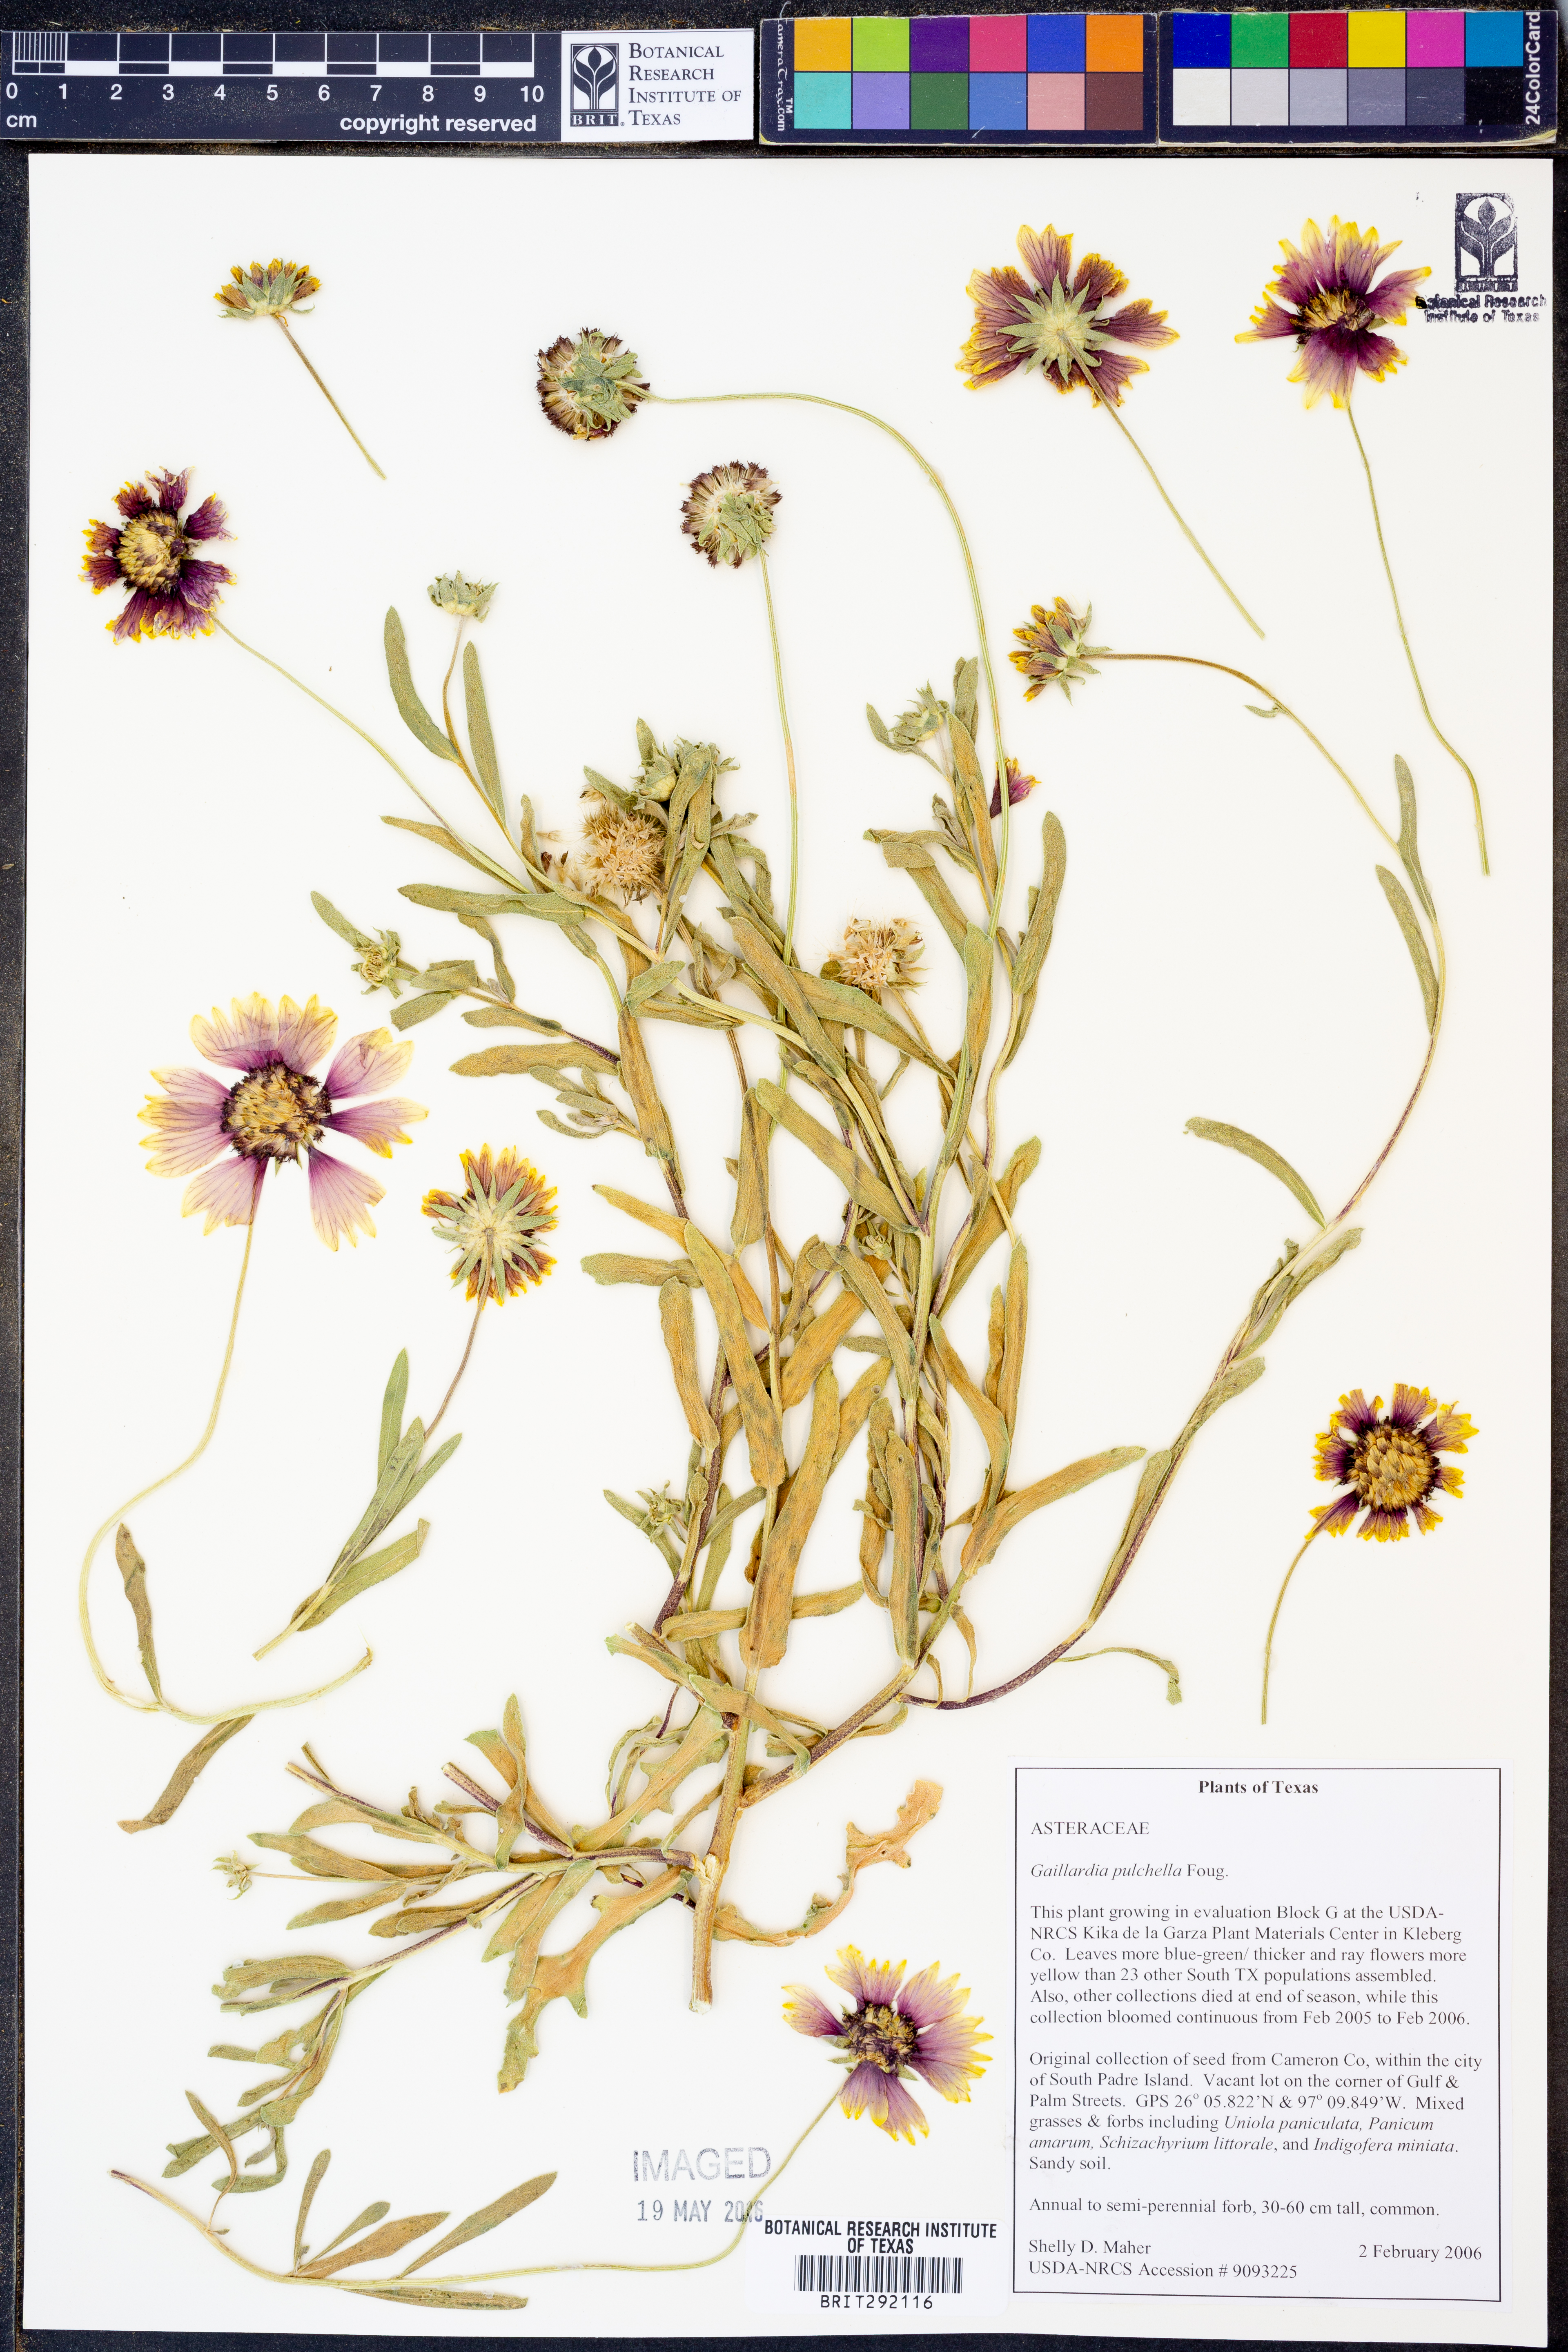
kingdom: Plantae
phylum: Tracheophyta
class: Magnoliopsida
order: Asterales
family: Asteraceae
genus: Gaillardia
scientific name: Gaillardia pulchella
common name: Firewheel
